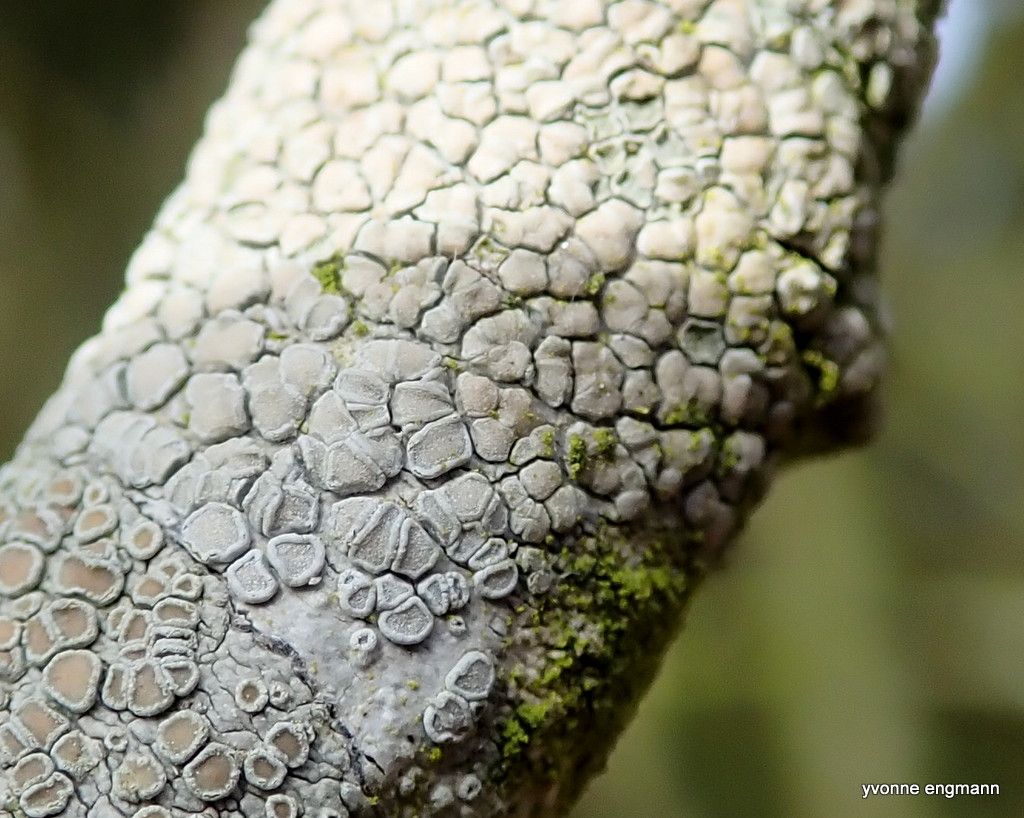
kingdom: Fungi
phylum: Ascomycota
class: Lecanoromycetes
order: Lecanorales
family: Lecanoraceae
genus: Glaucomaria
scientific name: Glaucomaria carpinea
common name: hviddugget kantskivelav
